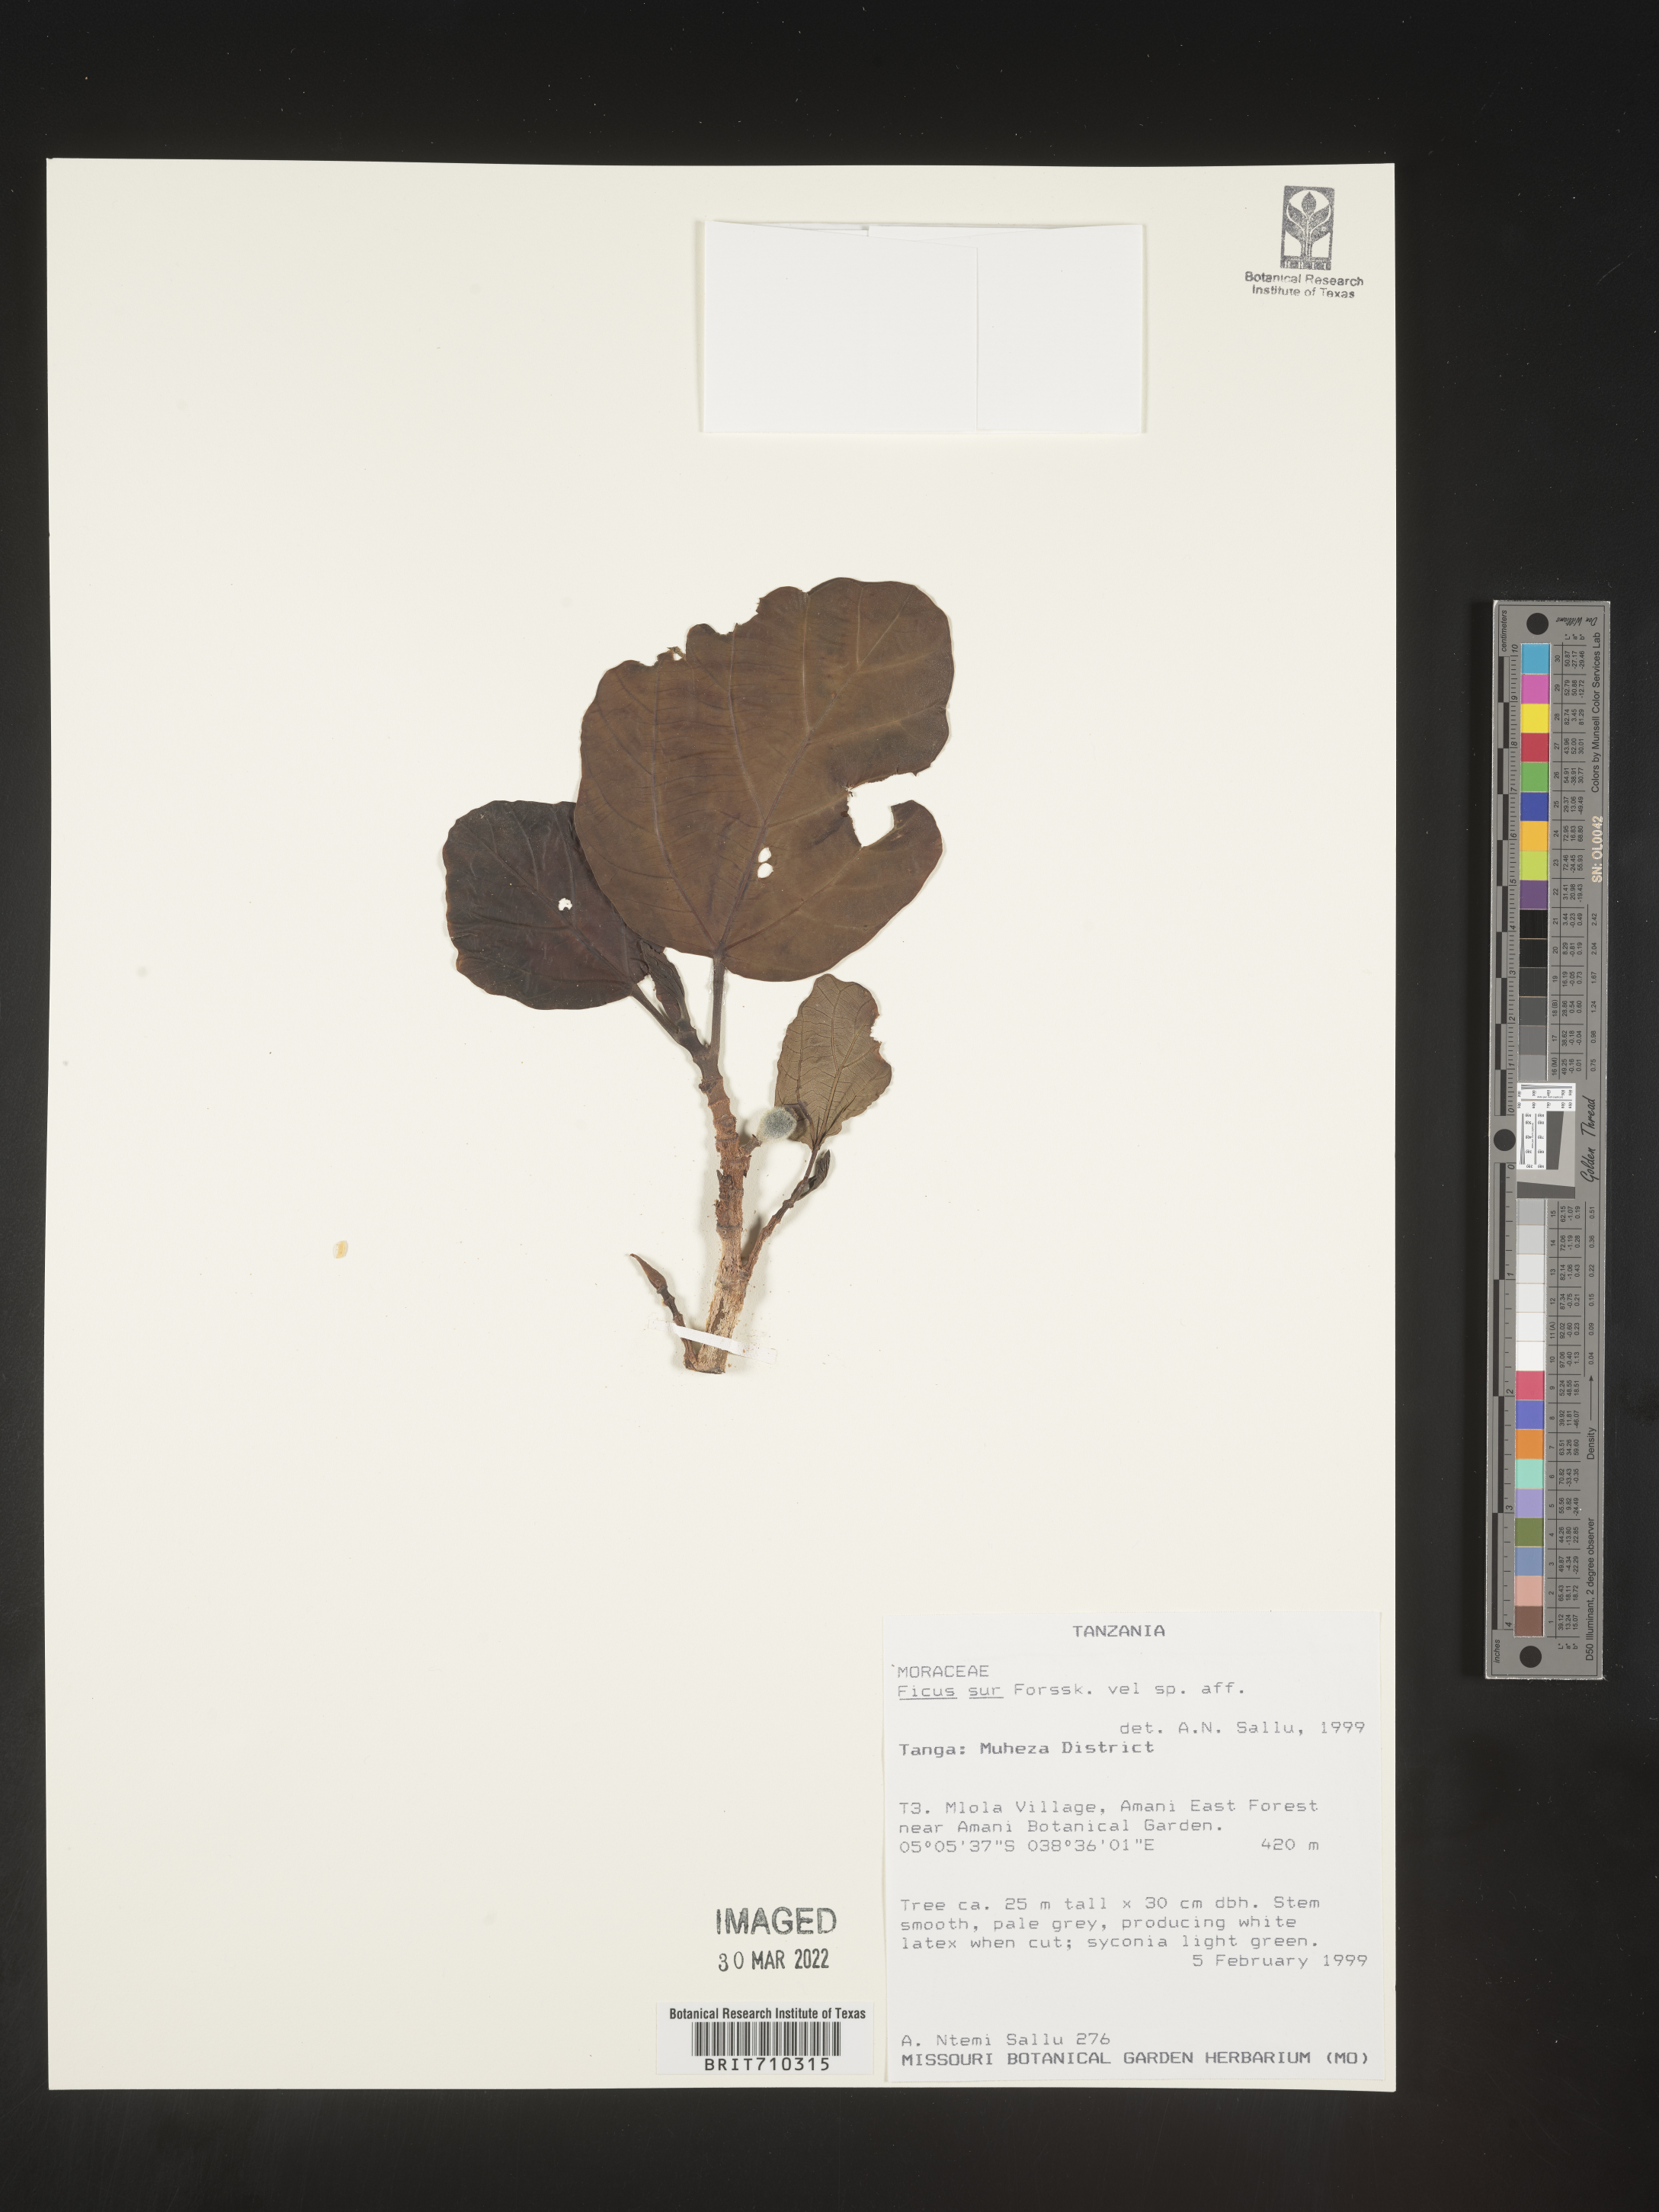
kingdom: Plantae
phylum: Tracheophyta
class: Magnoliopsida
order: Rosales
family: Moraceae
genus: Ficus
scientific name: Ficus
